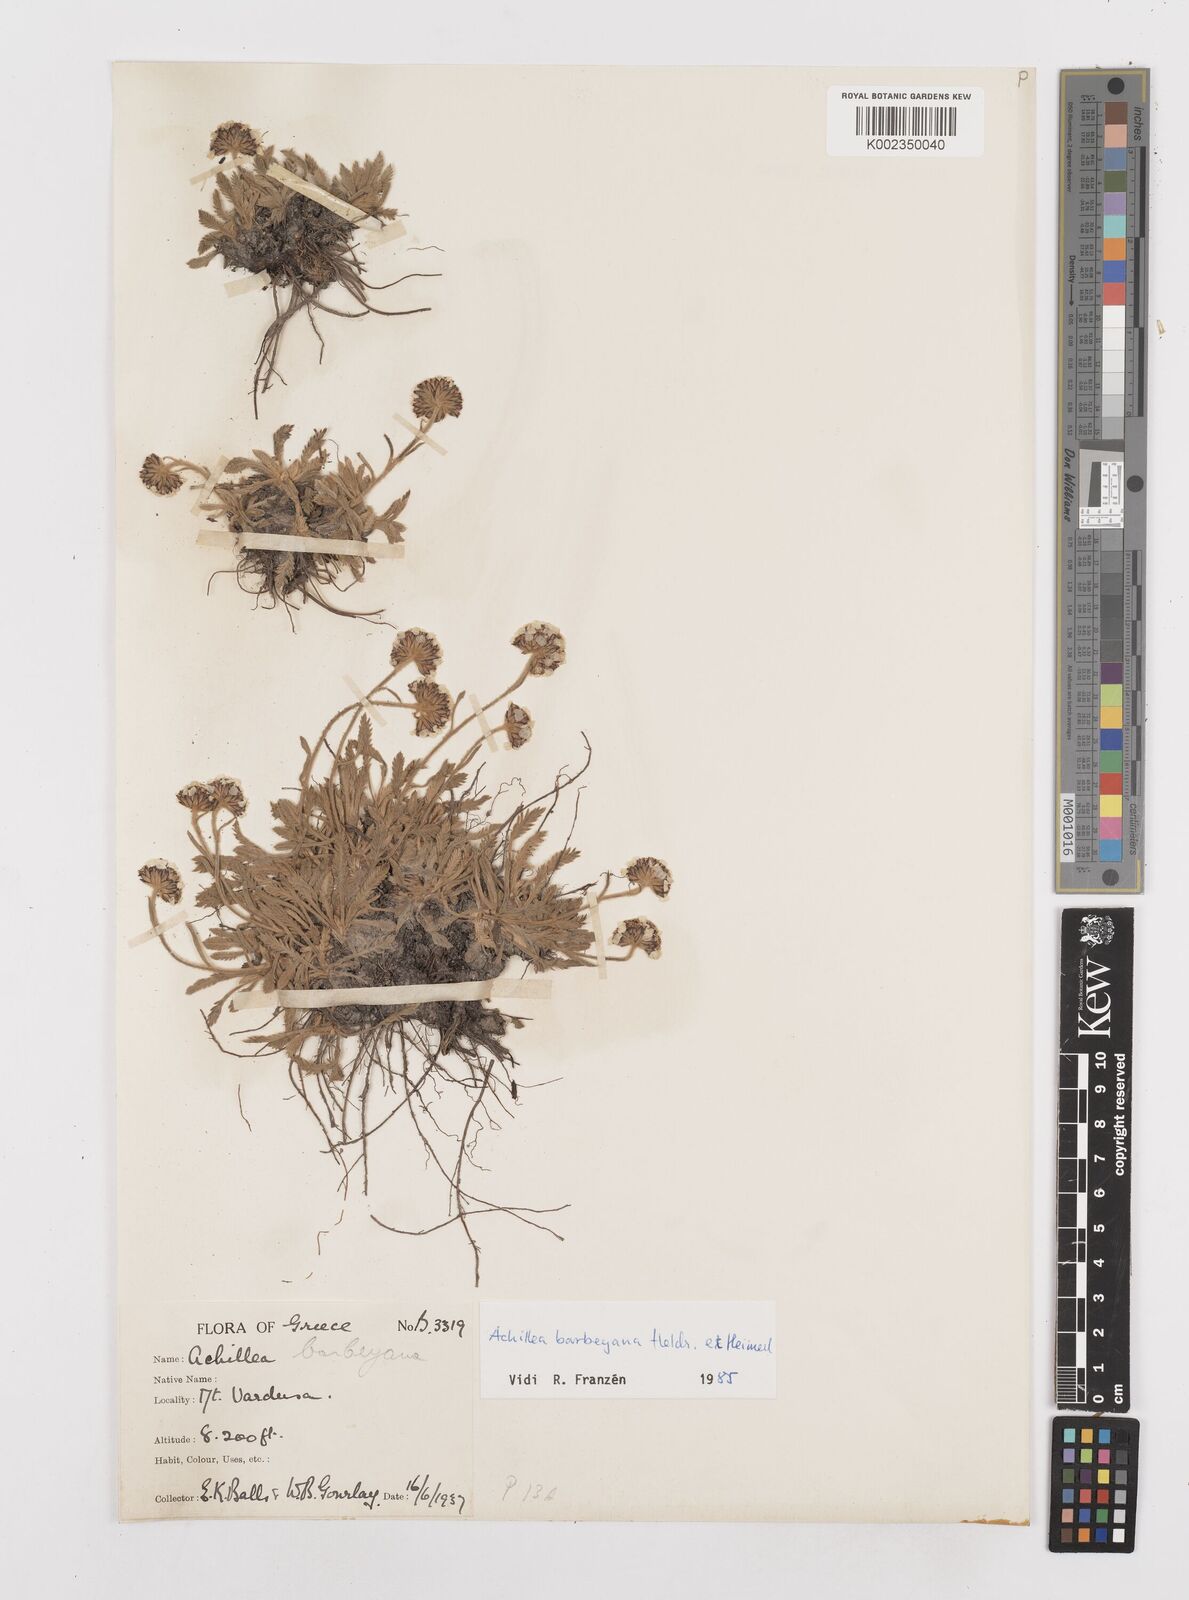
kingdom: Plantae
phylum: Tracheophyta
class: Magnoliopsida
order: Asterales
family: Asteraceae
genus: Achillea
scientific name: Achillea barbeyana
